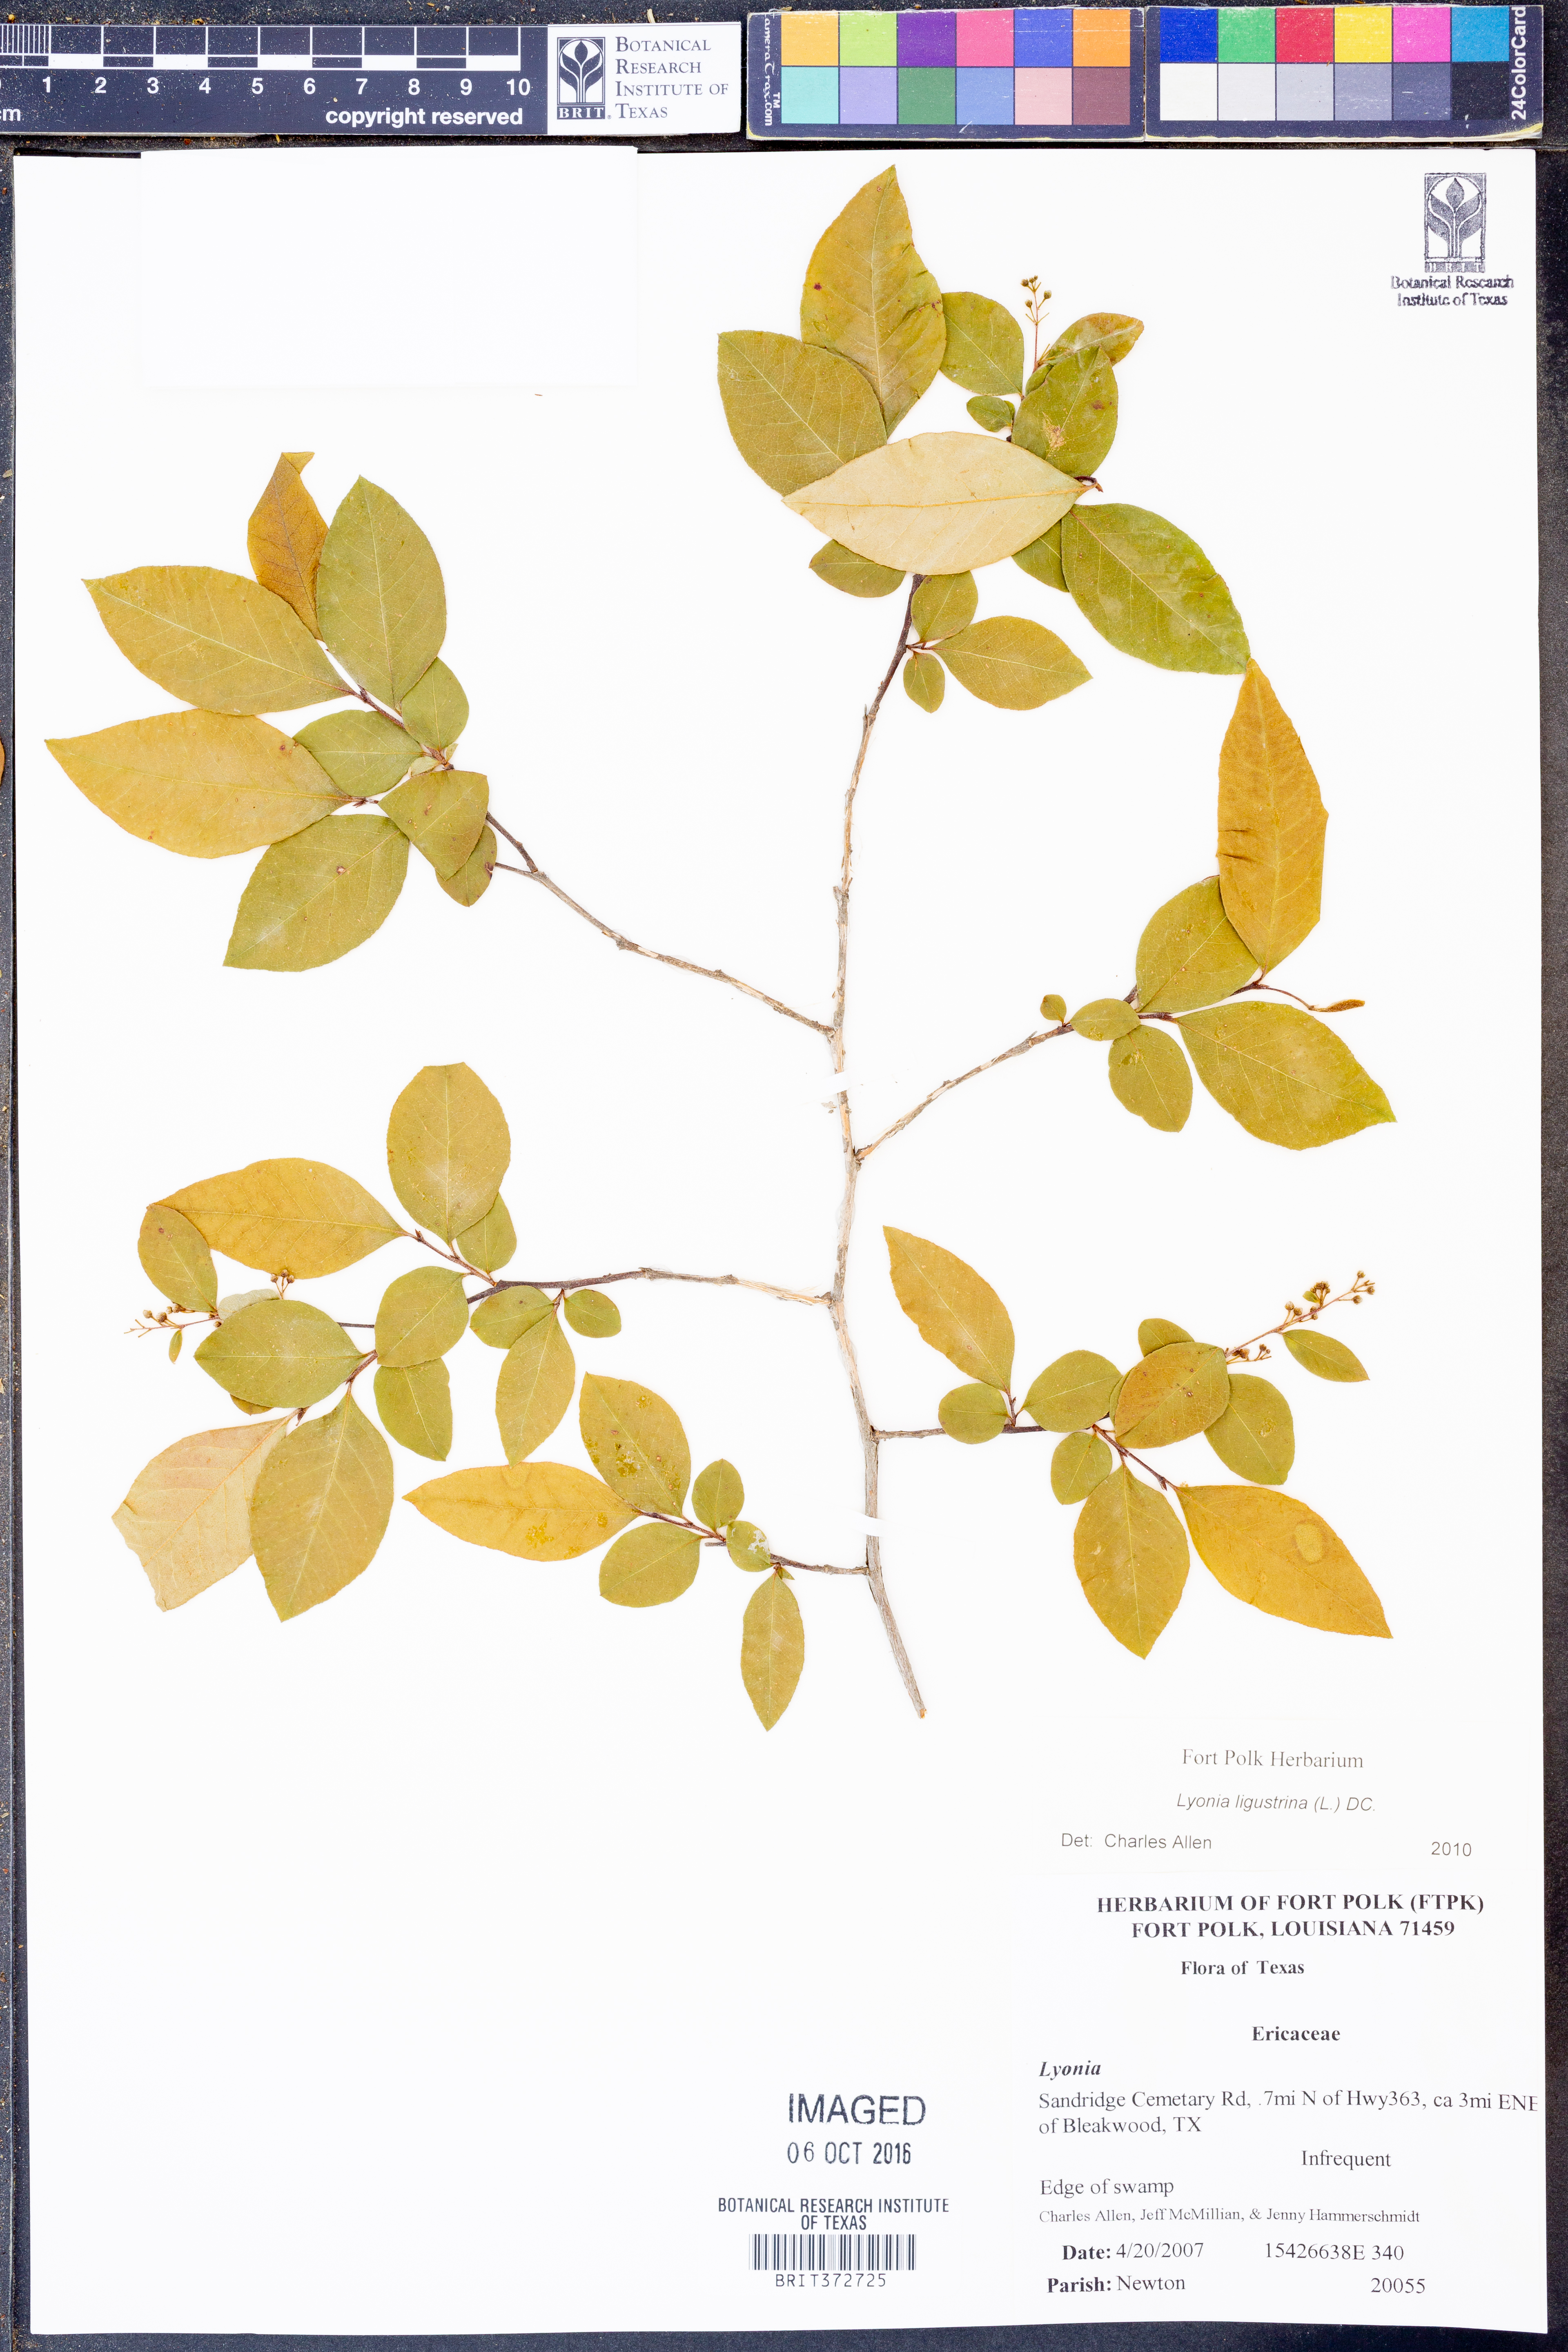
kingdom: Plantae
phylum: Tracheophyta
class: Magnoliopsida
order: Ericales
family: Ericaceae
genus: Lyonia
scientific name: Lyonia ligustrina
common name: Maleberry
